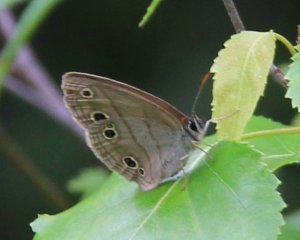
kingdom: Animalia
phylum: Arthropoda
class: Insecta
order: Lepidoptera
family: Nymphalidae
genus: Euptychia
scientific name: Euptychia cymela
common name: Little Wood Satyr
